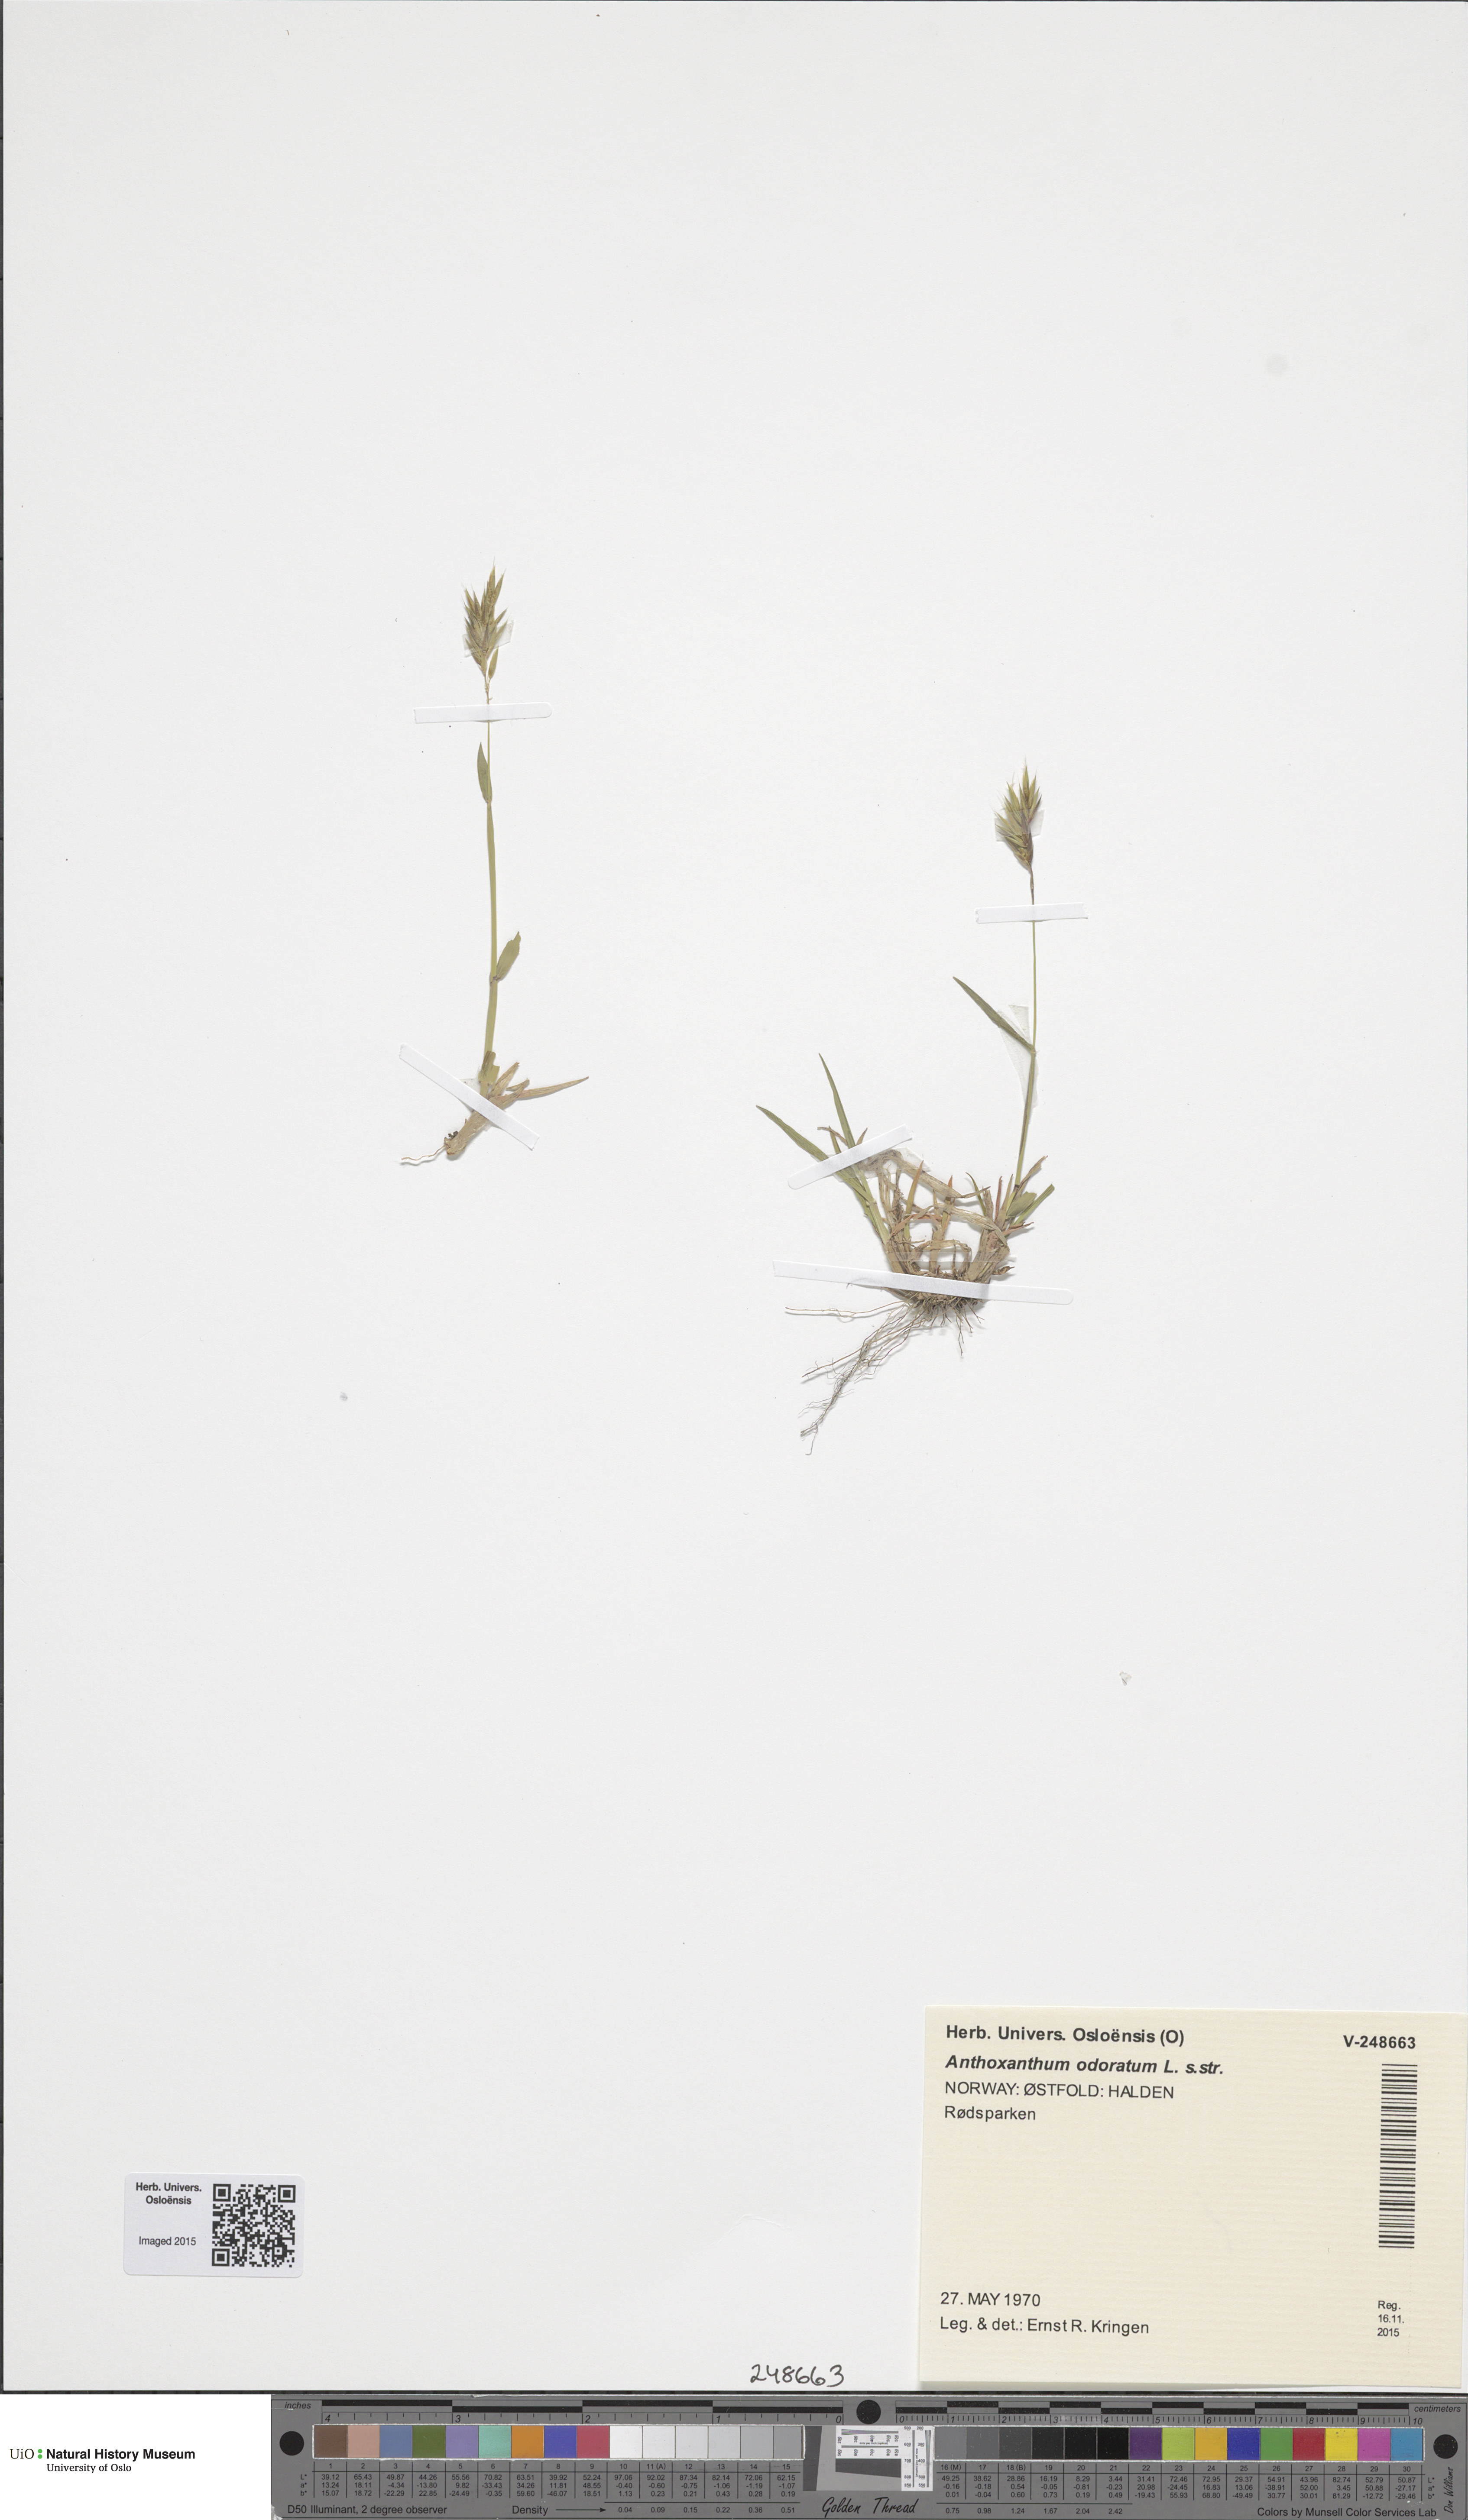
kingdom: Plantae
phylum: Tracheophyta
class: Liliopsida
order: Poales
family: Poaceae
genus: Anthoxanthum
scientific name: Anthoxanthum odoratum
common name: Sweet vernalgrass
